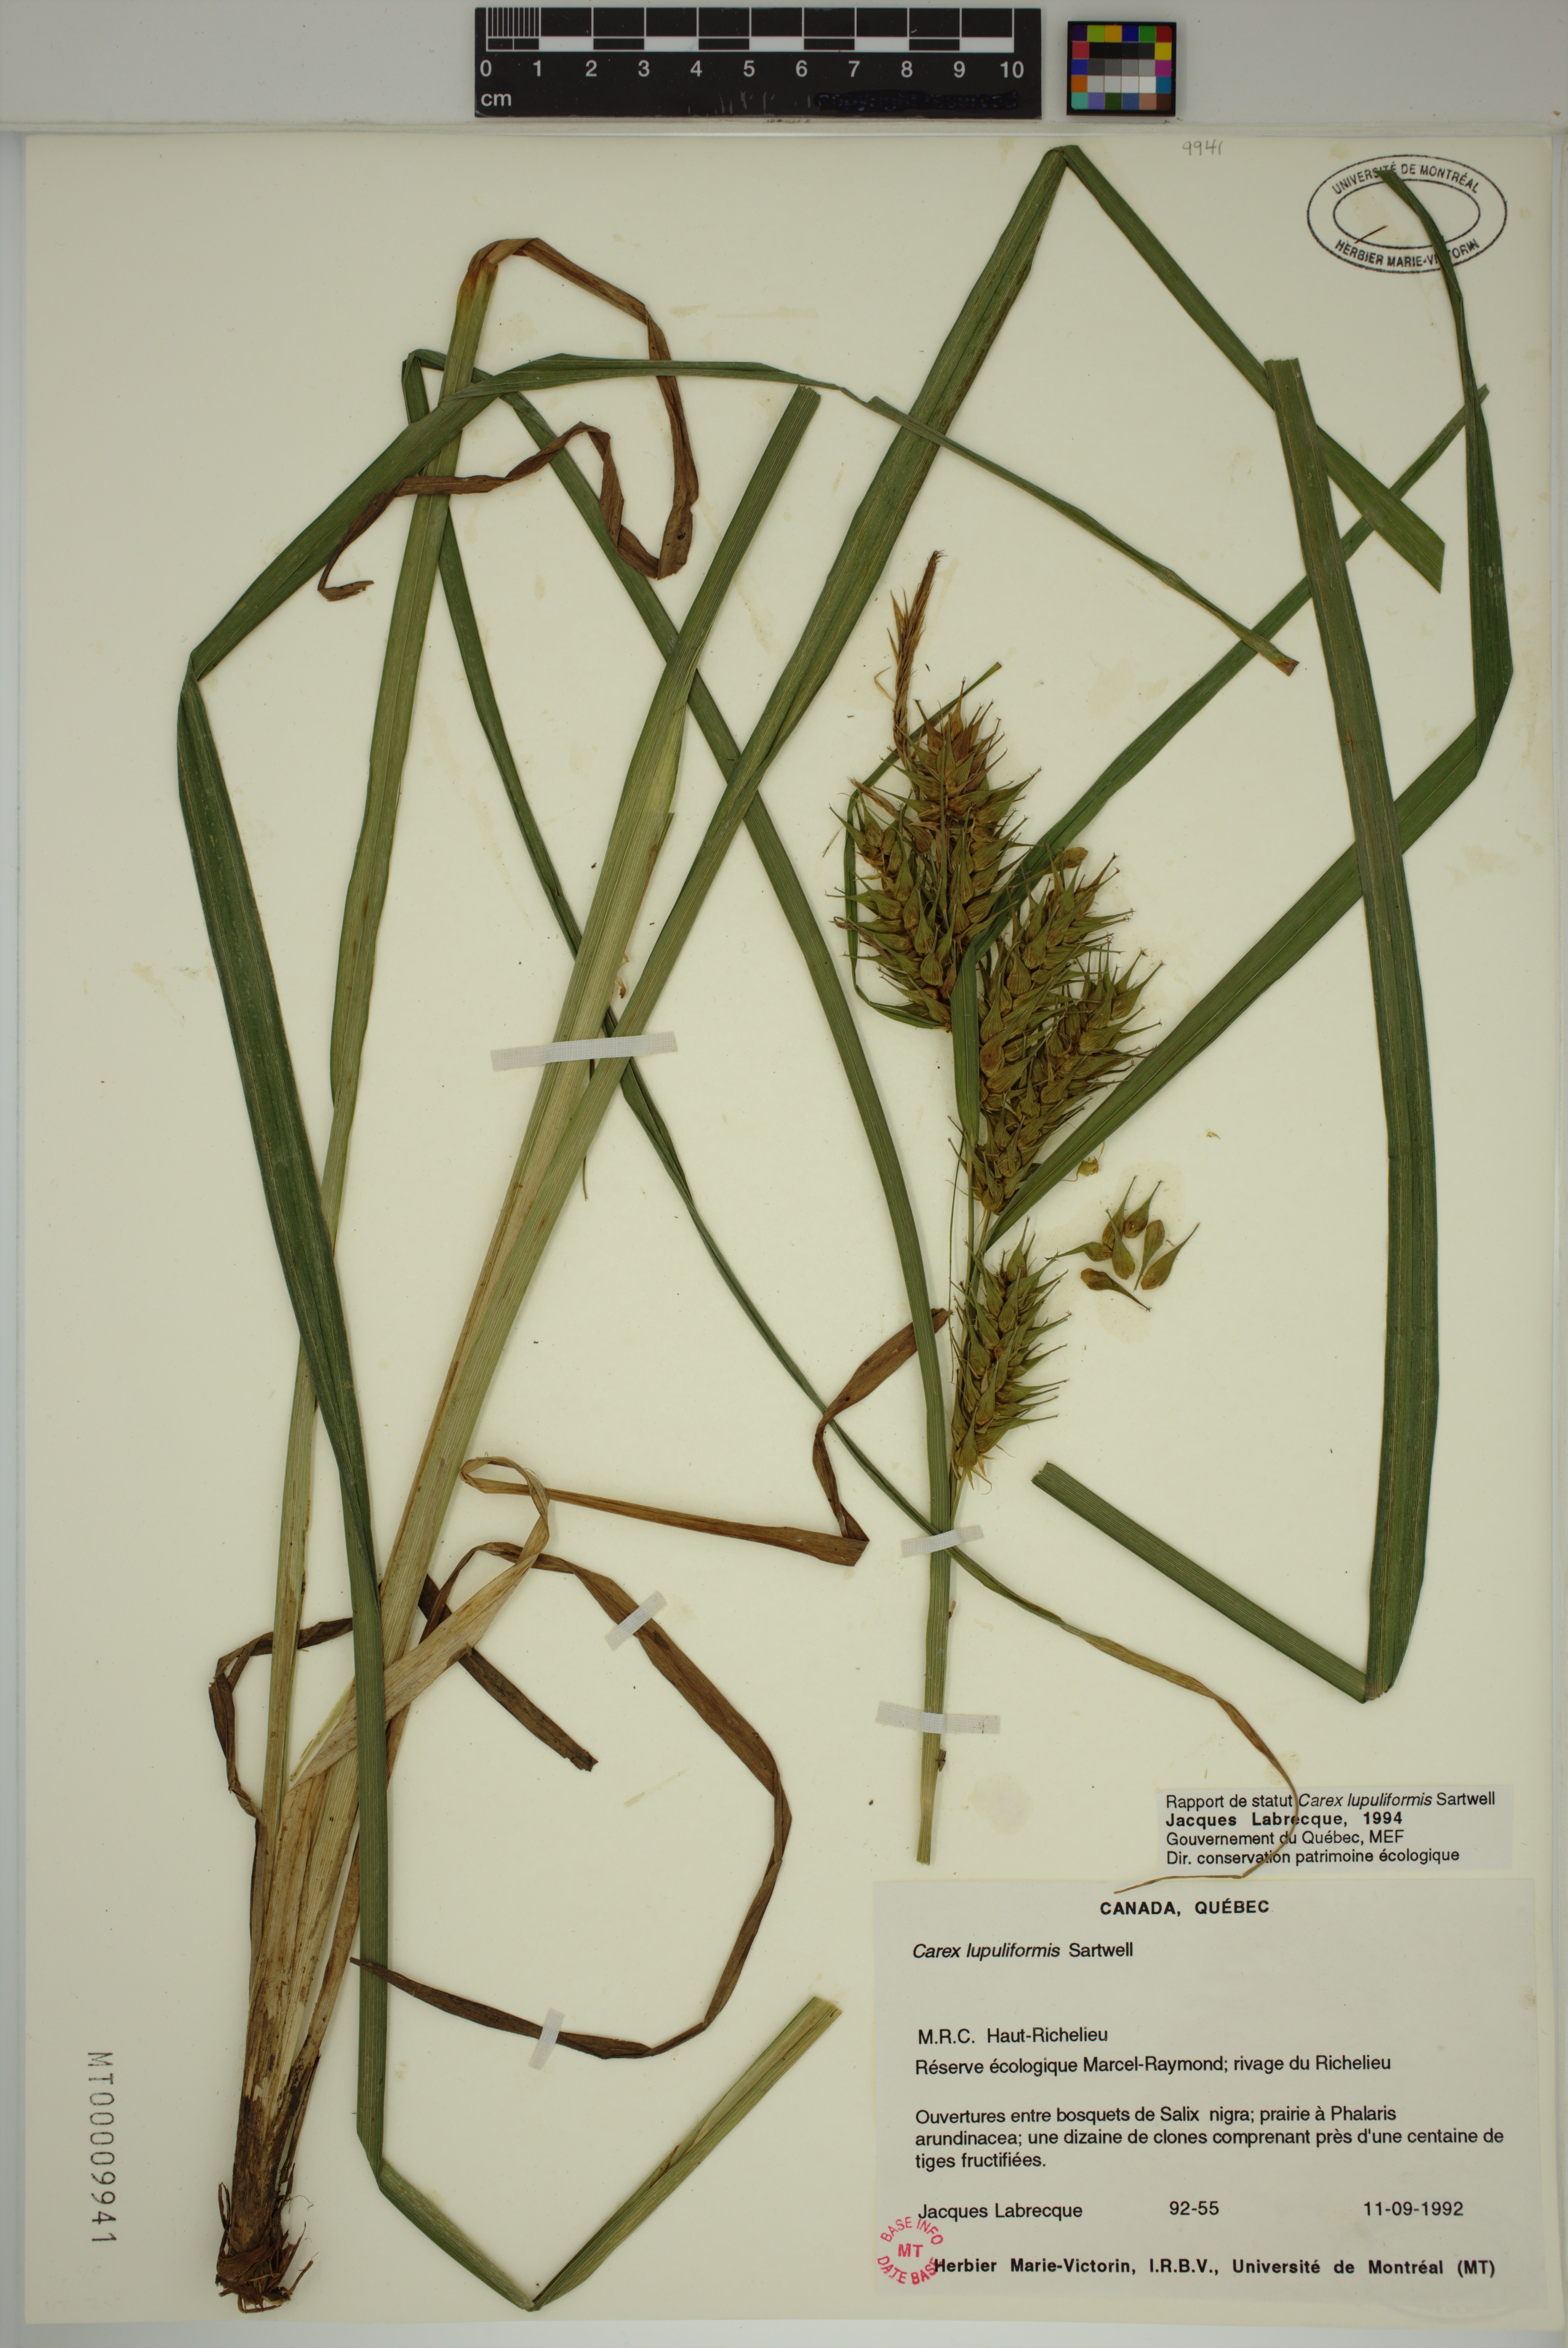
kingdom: Plantae
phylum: Tracheophyta
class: Liliopsida
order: Poales
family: Cyperaceae
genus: Carex
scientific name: Carex lupuliformis
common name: False hop sedge
